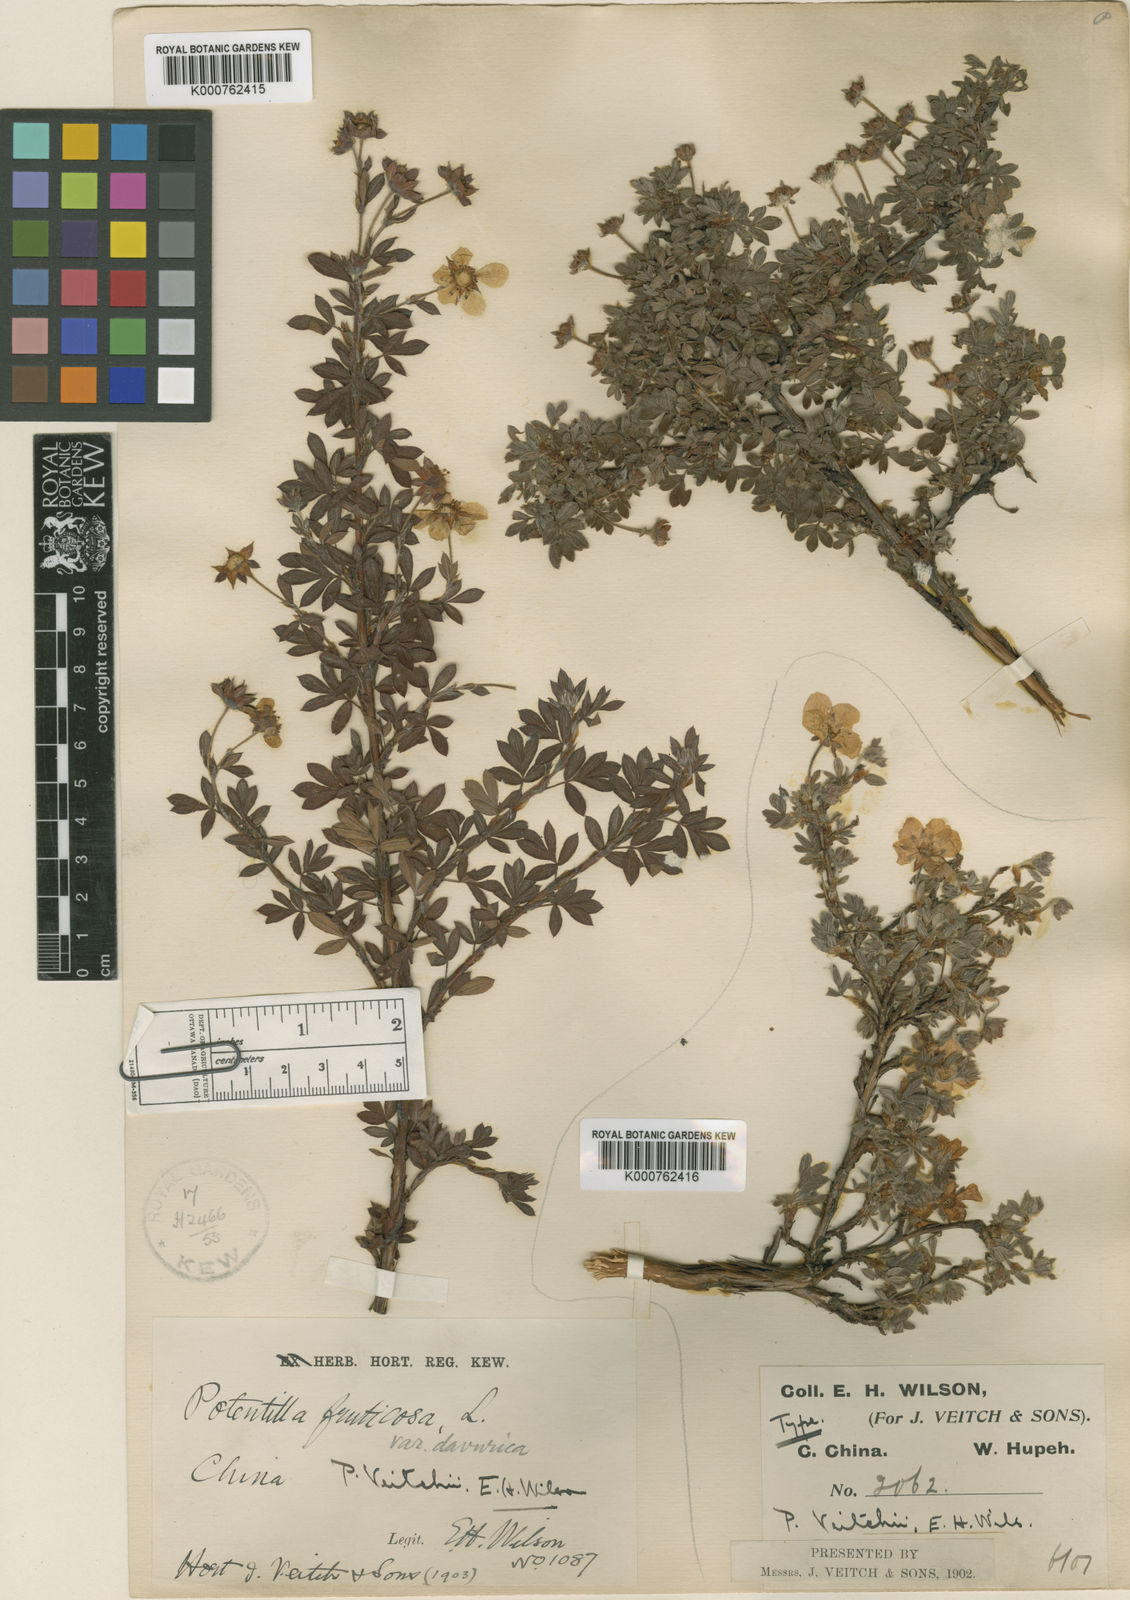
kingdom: Plantae
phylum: Tracheophyta
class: Magnoliopsida
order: Rosales
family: Rosaceae
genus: Dasiphora
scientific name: Dasiphora fruticosa
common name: Shrubby cinquefoil
